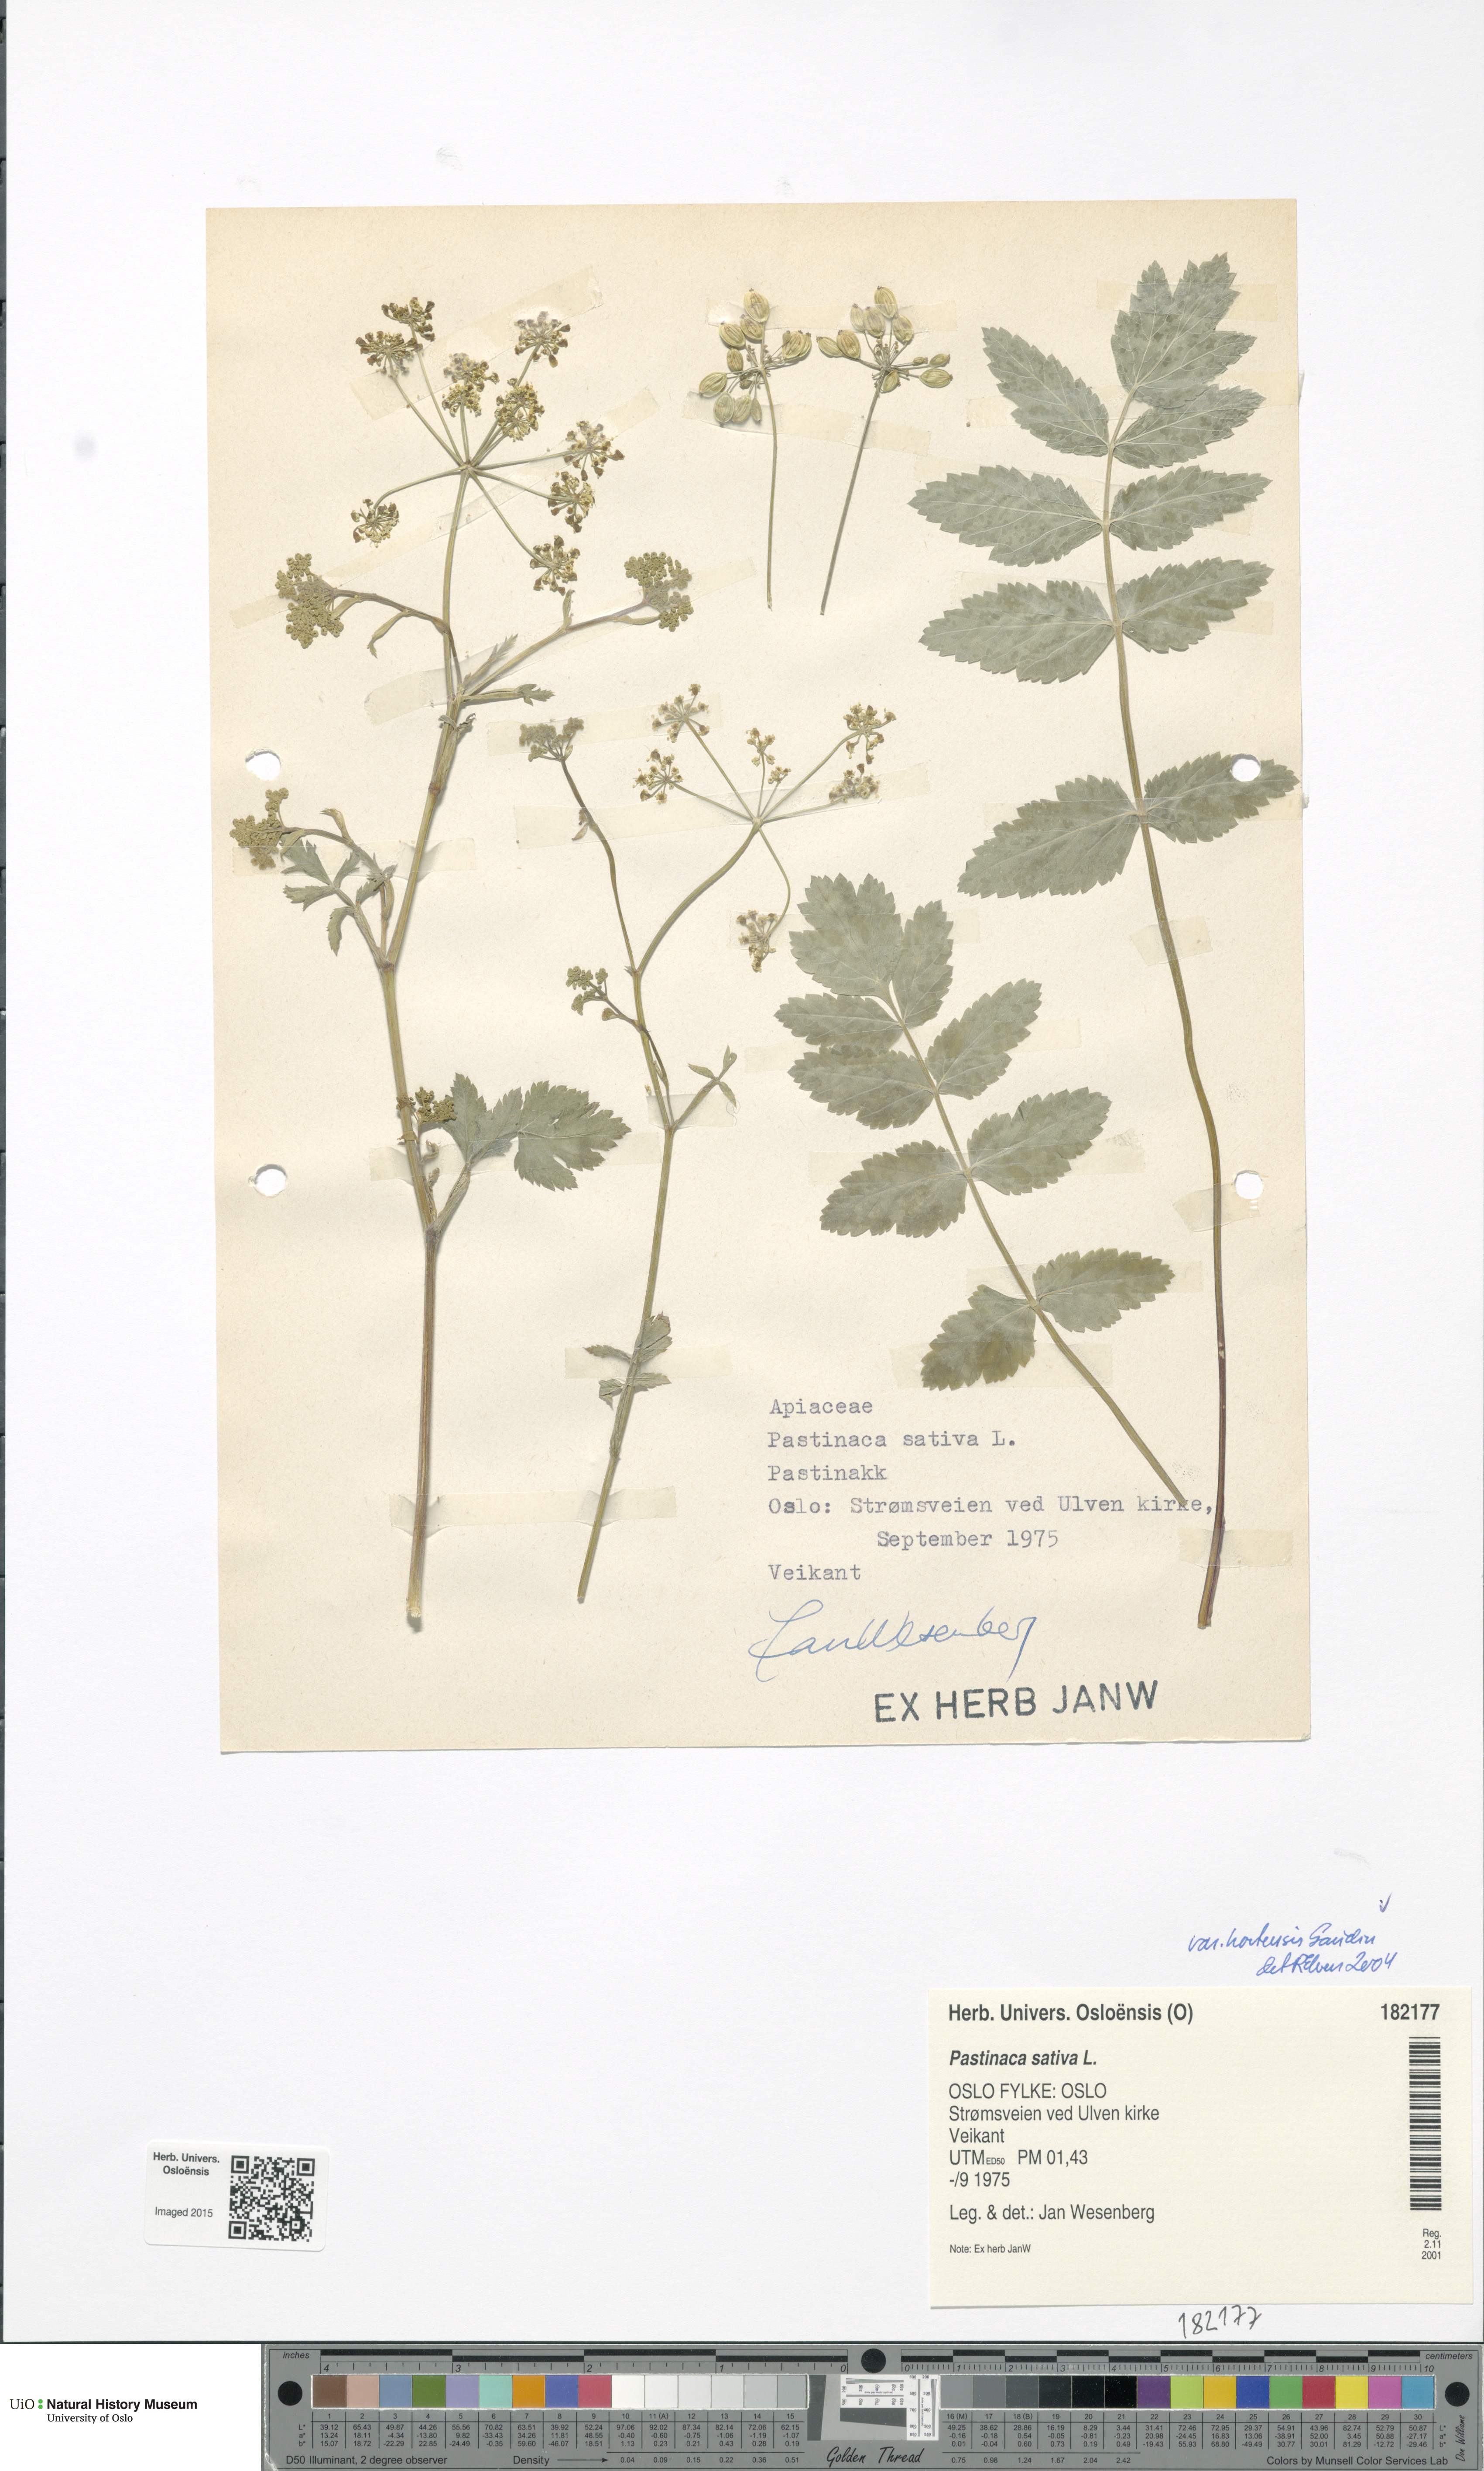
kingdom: Plantae
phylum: Tracheophyta
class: Magnoliopsida
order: Apiales
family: Apiaceae
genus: Pastinaca
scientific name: Pastinaca sativa
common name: Wild parsnip
